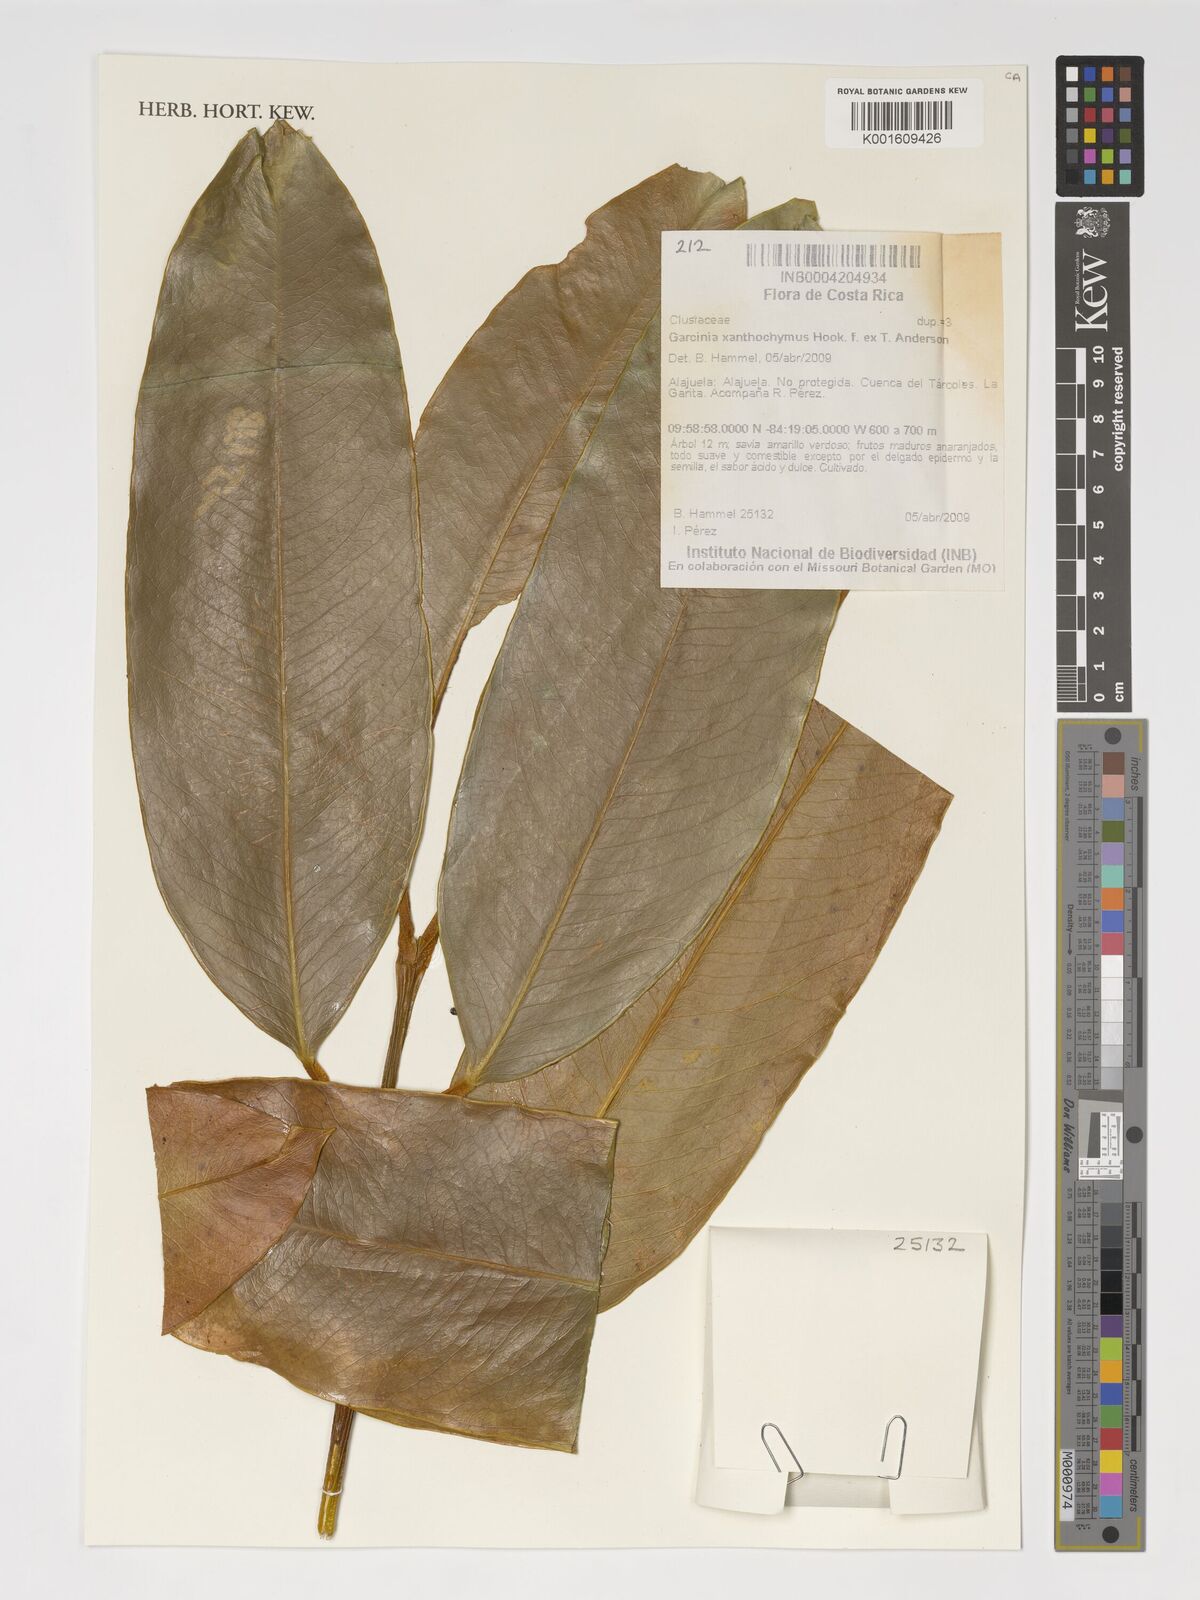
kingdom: Plantae
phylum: Tracheophyta
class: Magnoliopsida
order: Malpighiales
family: Clusiaceae
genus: Garcinia
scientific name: Garcinia xanthochymus
